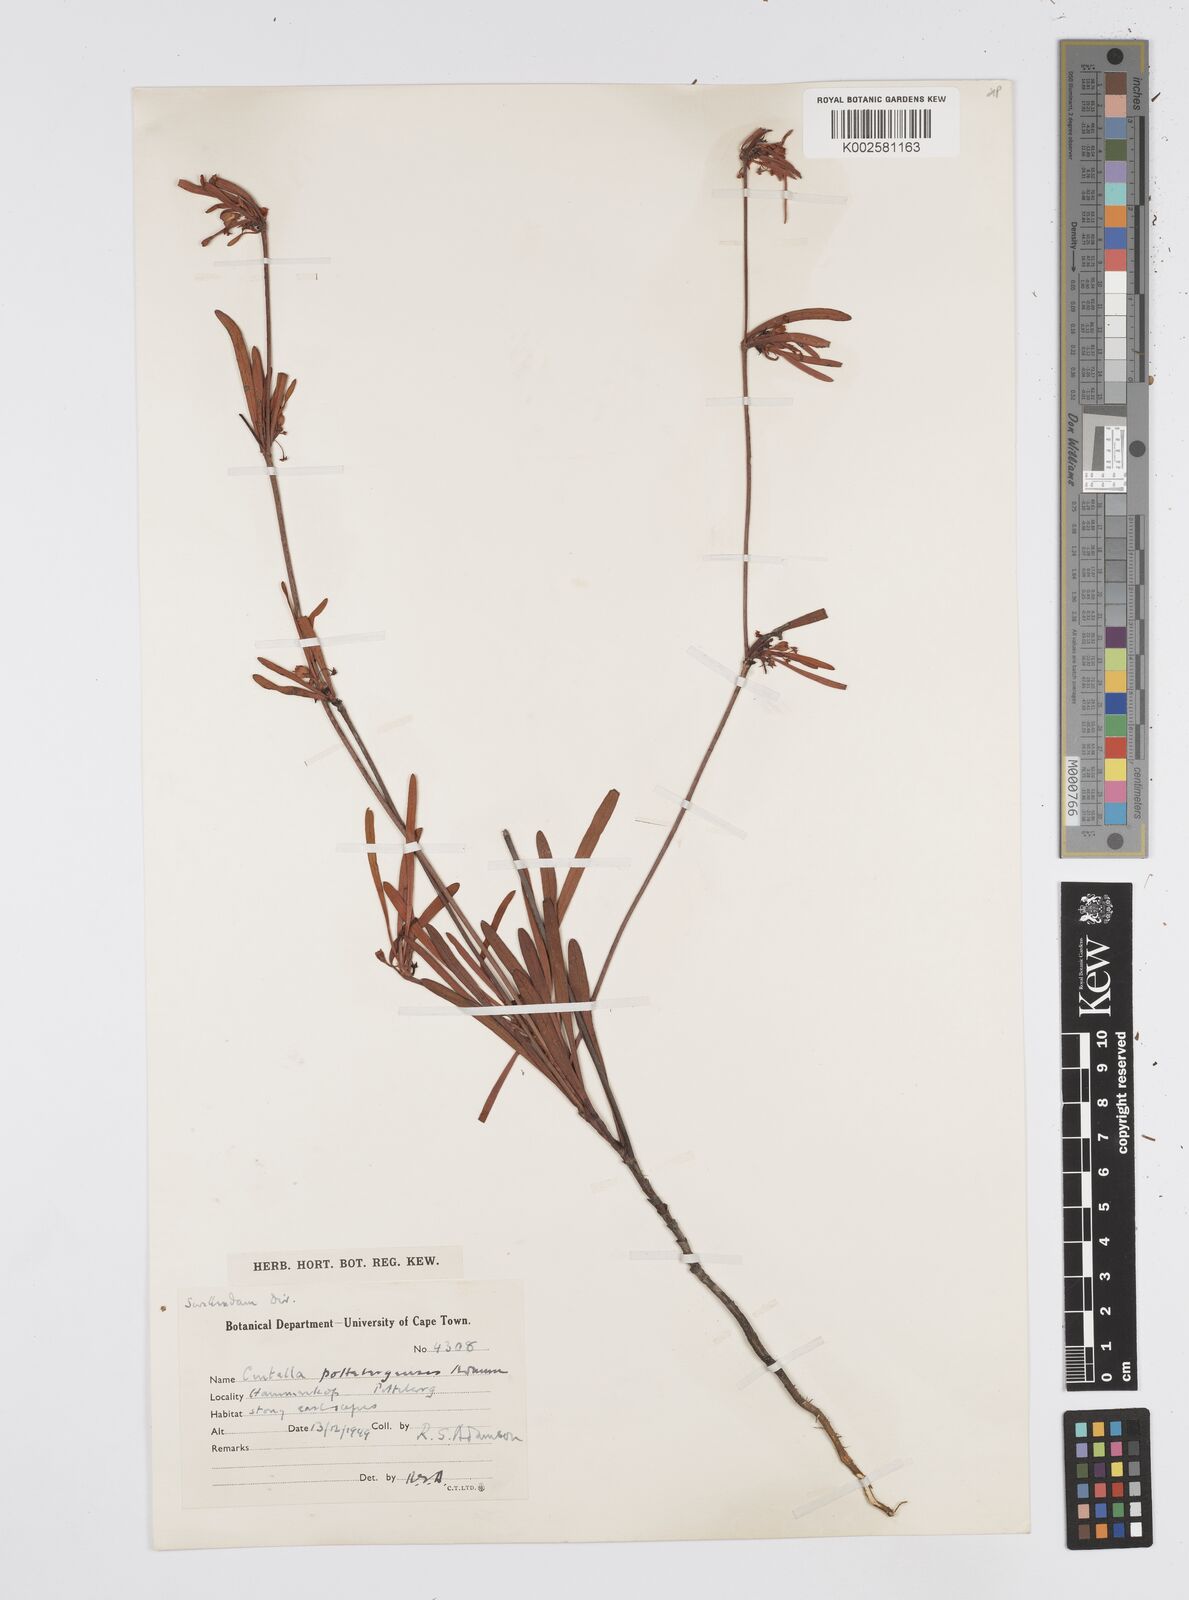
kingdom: Plantae
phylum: Tracheophyta
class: Magnoliopsida
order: Apiales
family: Apiaceae
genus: Centella
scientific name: Centella pottebergensis
